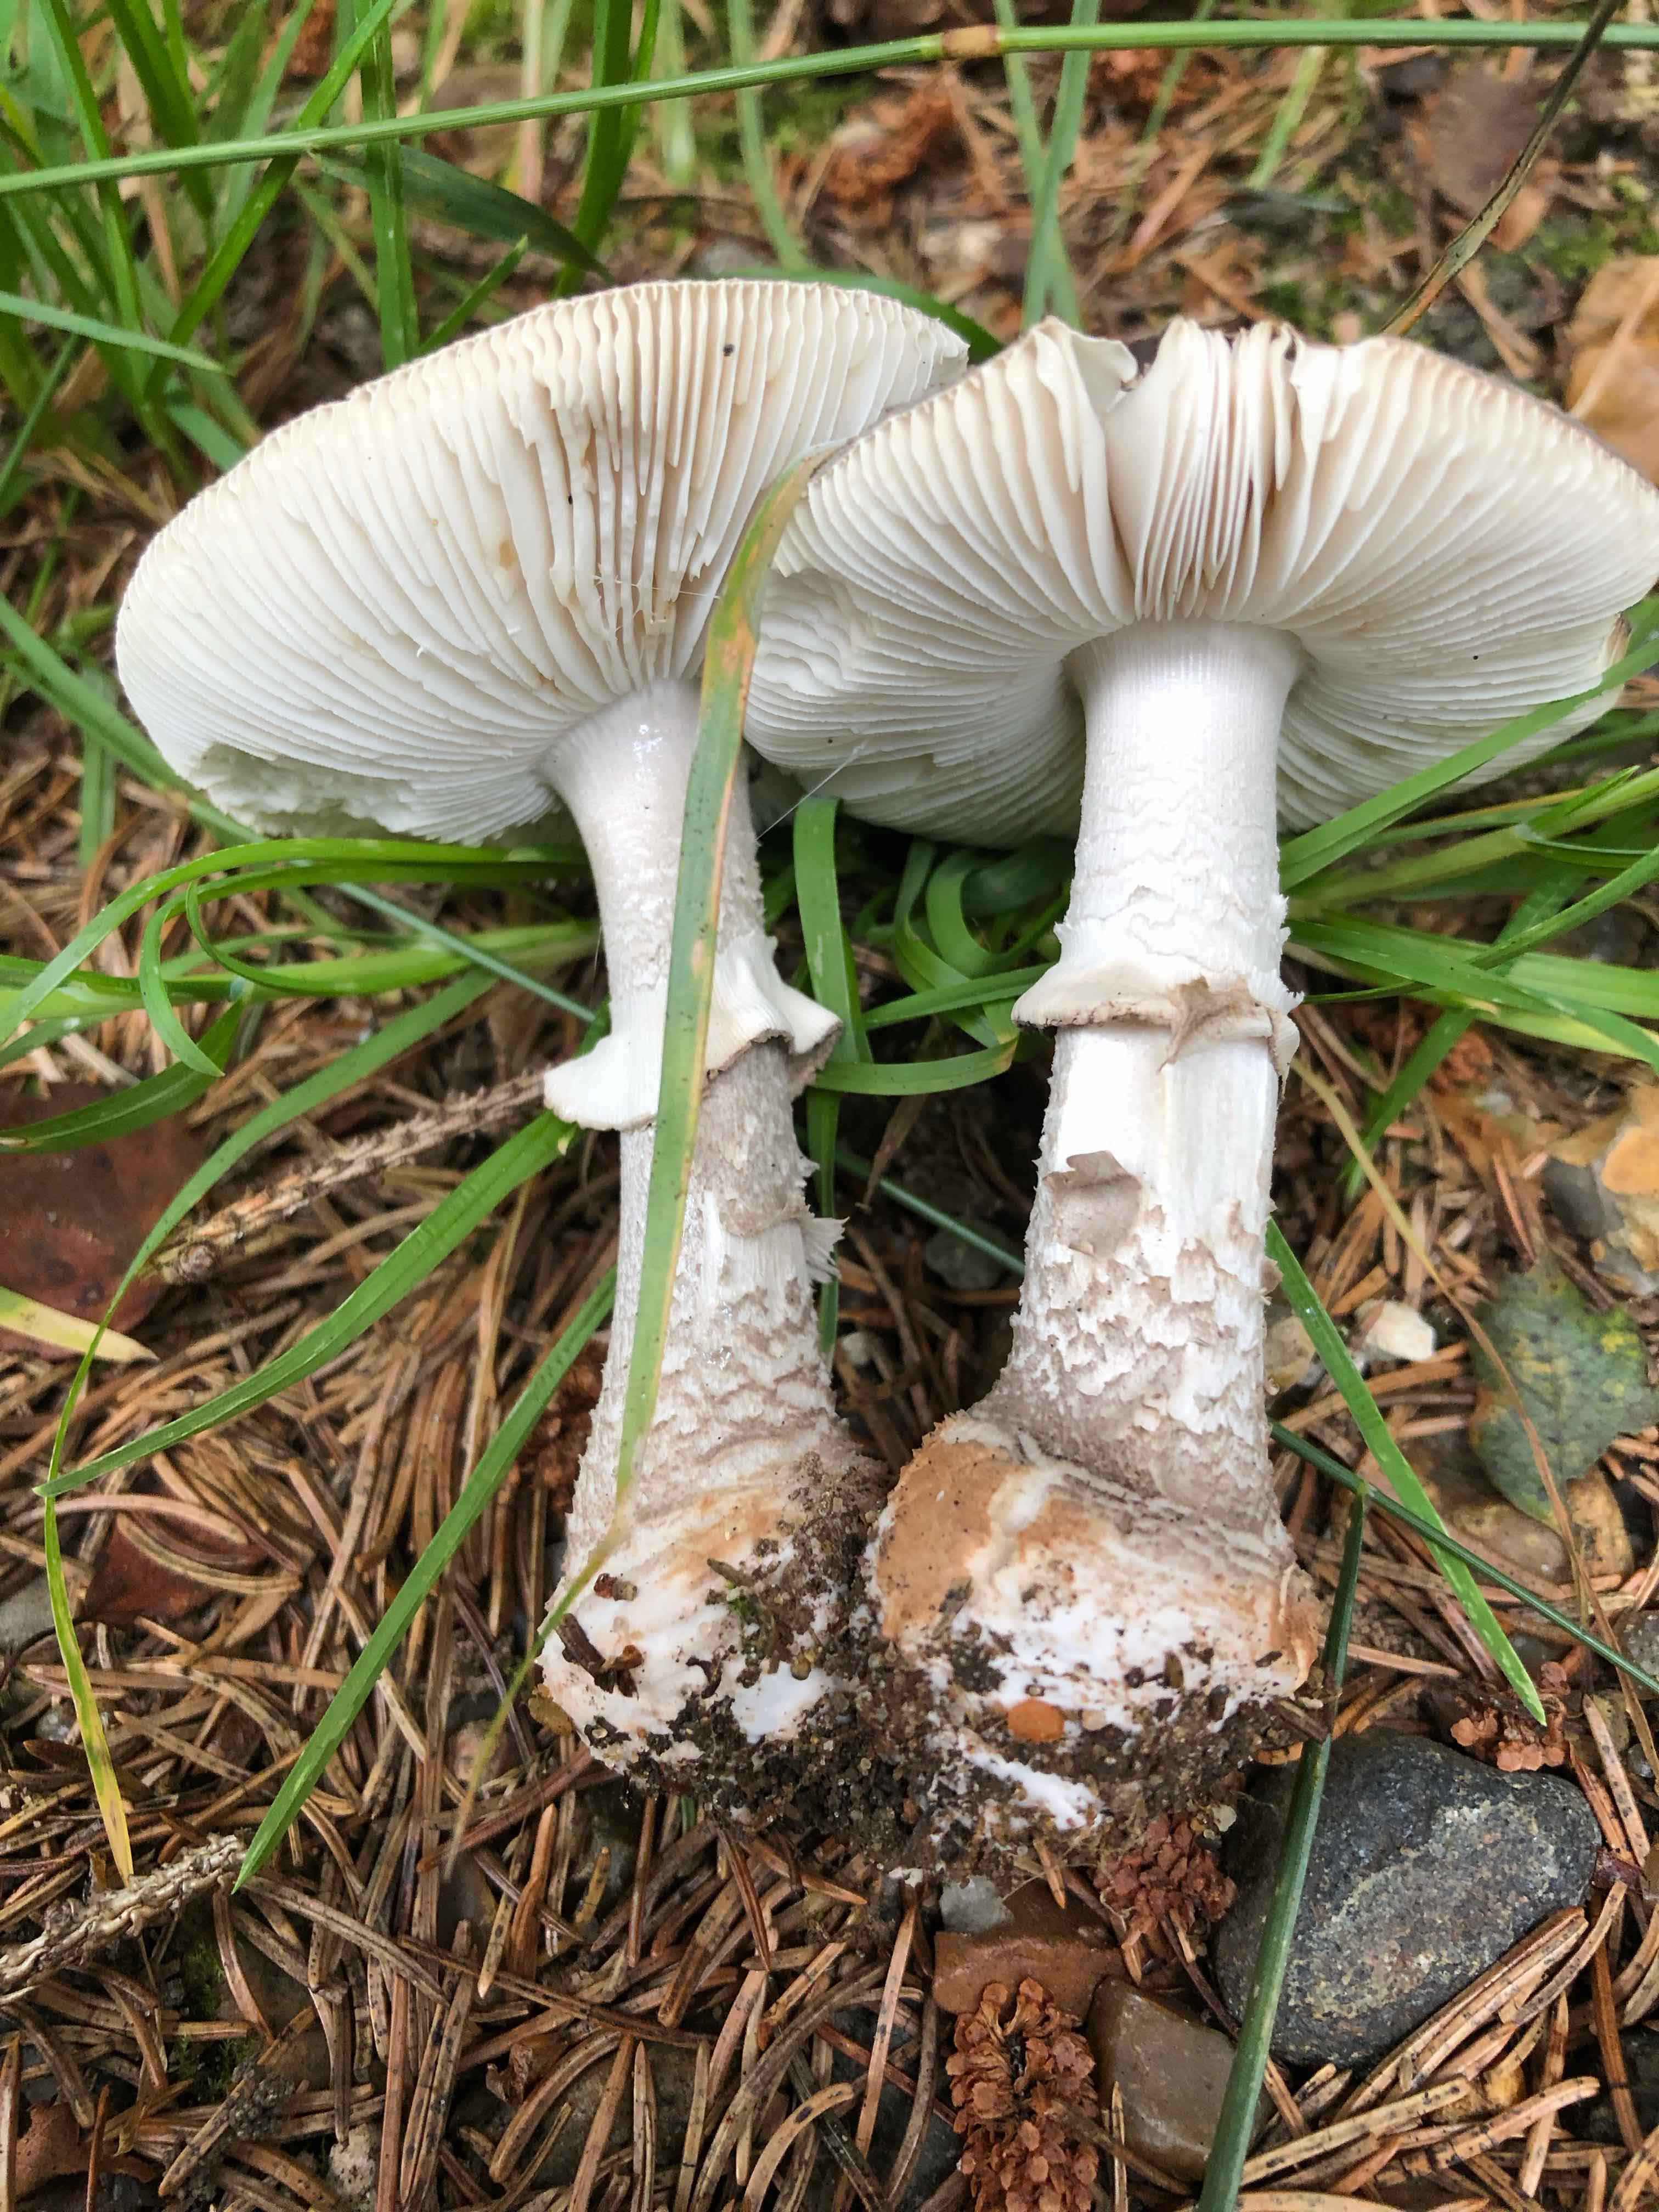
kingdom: Fungi
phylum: Basidiomycota
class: Agaricomycetes
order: Agaricales
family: Amanitaceae
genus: Amanita
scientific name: Amanita
